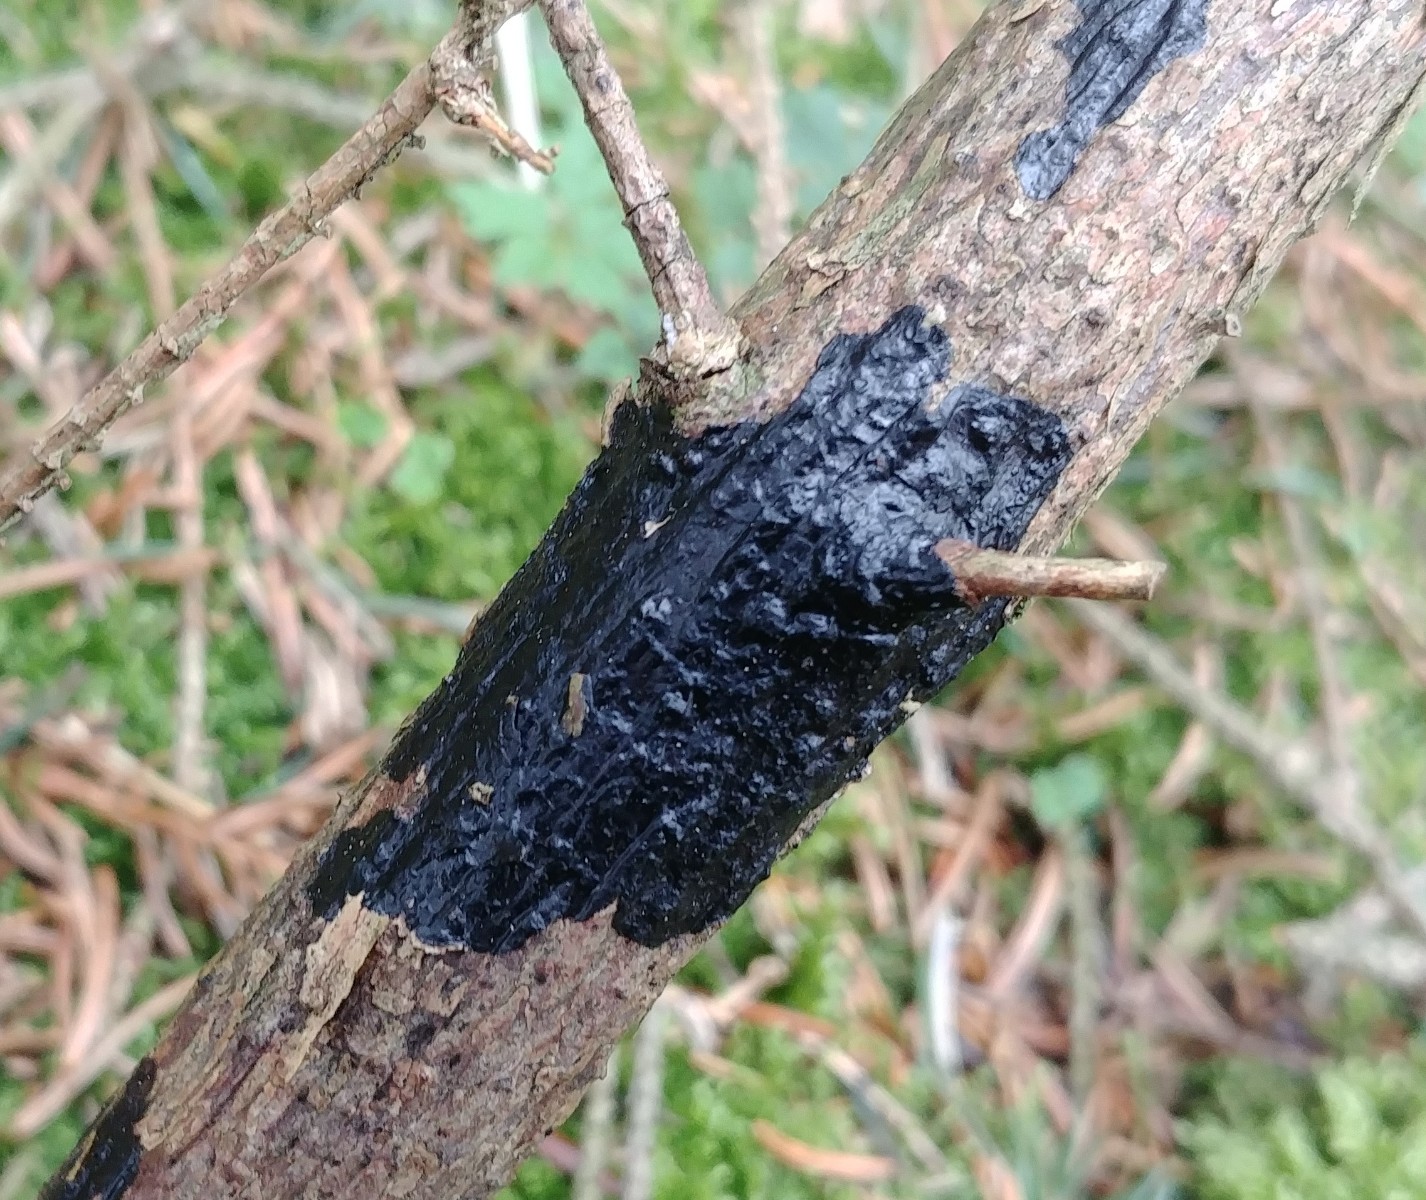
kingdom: Fungi
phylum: Basidiomycota
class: Agaricomycetes
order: Auriculariales
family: Auriculariaceae
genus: Exidia
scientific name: Exidia pithya
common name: gran-bævretop
